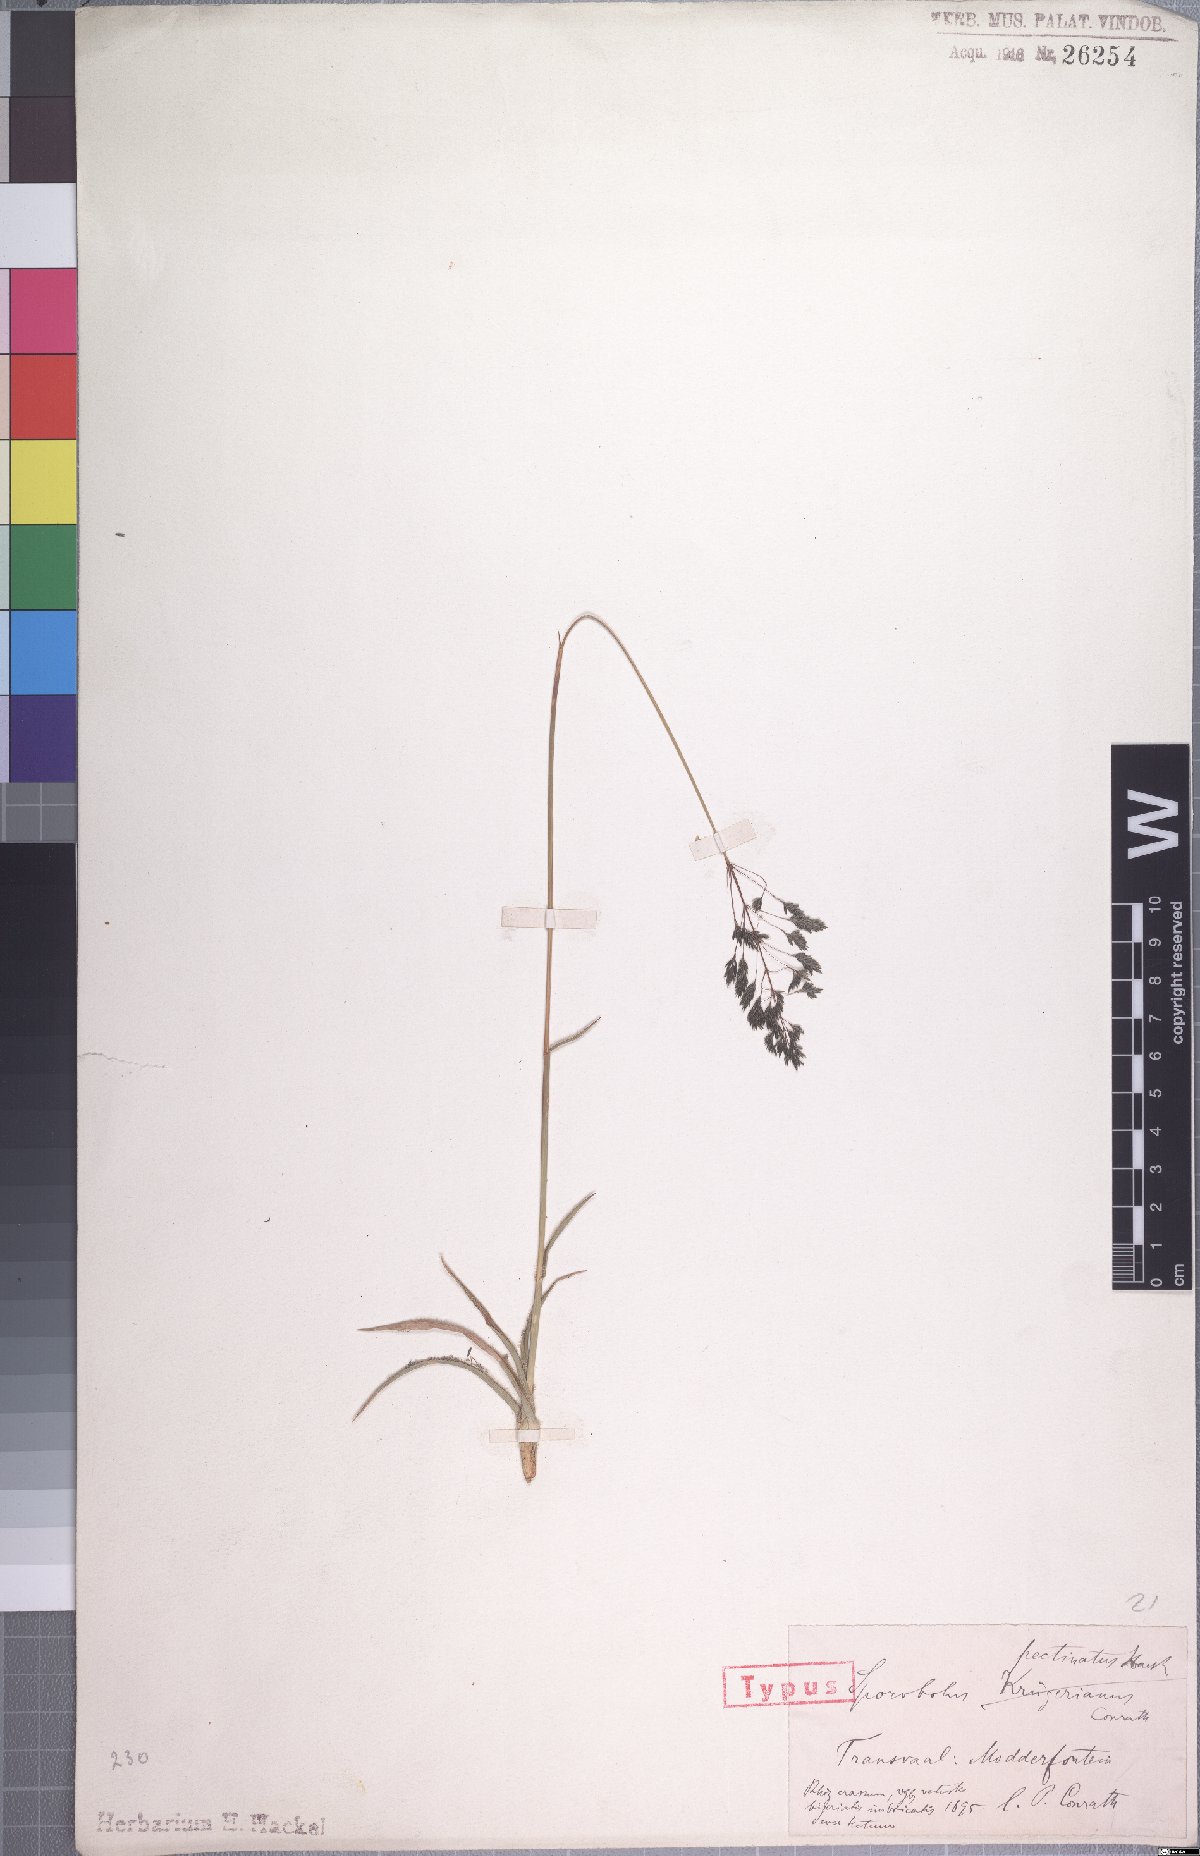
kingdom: Plantae
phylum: Tracheophyta
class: Liliopsida
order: Poales
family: Poaceae
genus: Sporobolus
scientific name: Sporobolus pectinatus
